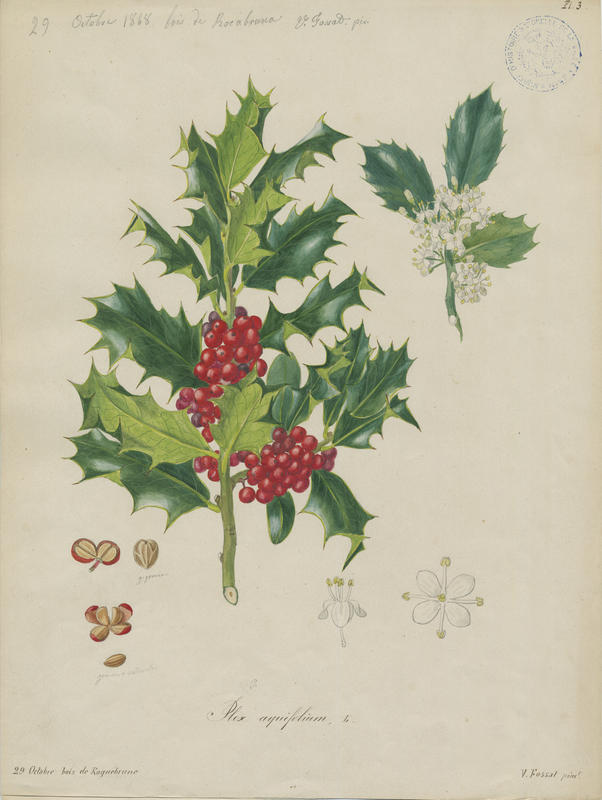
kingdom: Plantae
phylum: Tracheophyta
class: Magnoliopsida
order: Aquifoliales
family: Aquifoliaceae
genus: Ilex
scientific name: Ilex aquifolium
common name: English holly
